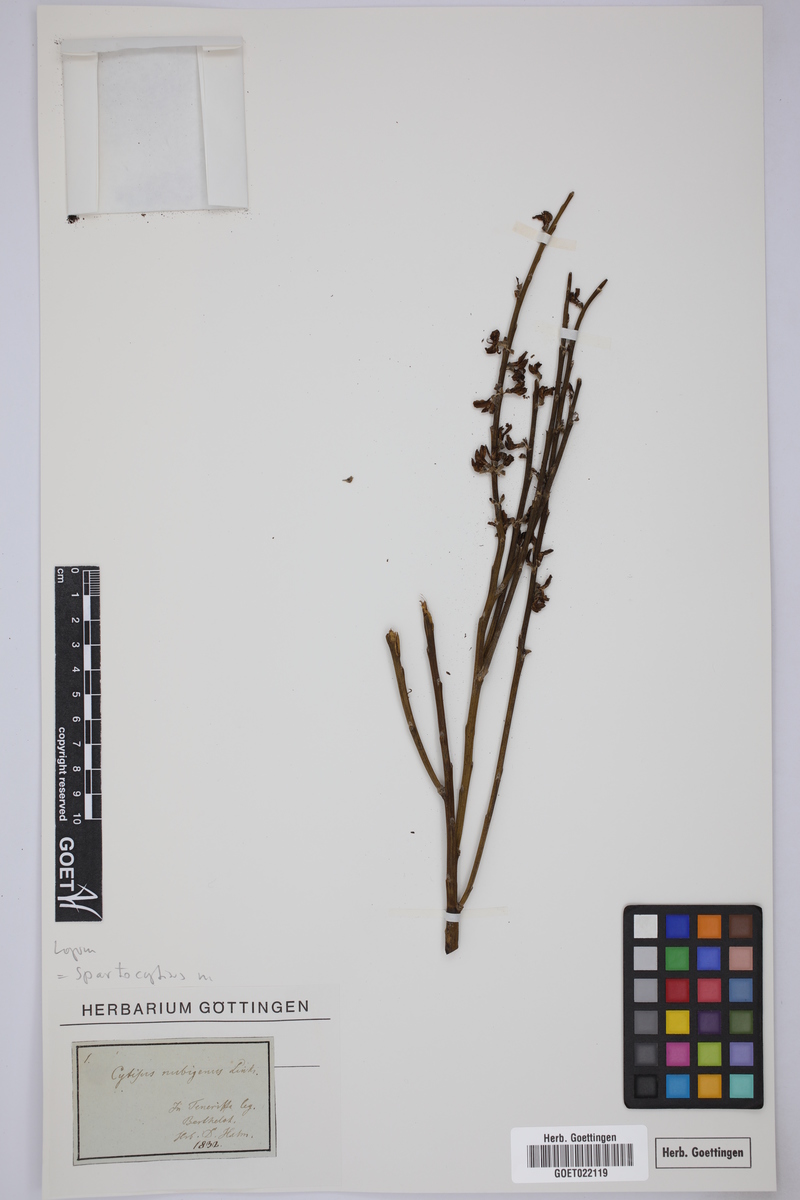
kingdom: Plantae
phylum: Tracheophyta
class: Magnoliopsida
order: Fabales
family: Fabaceae
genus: Cytisus
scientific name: Cytisus supranubius
